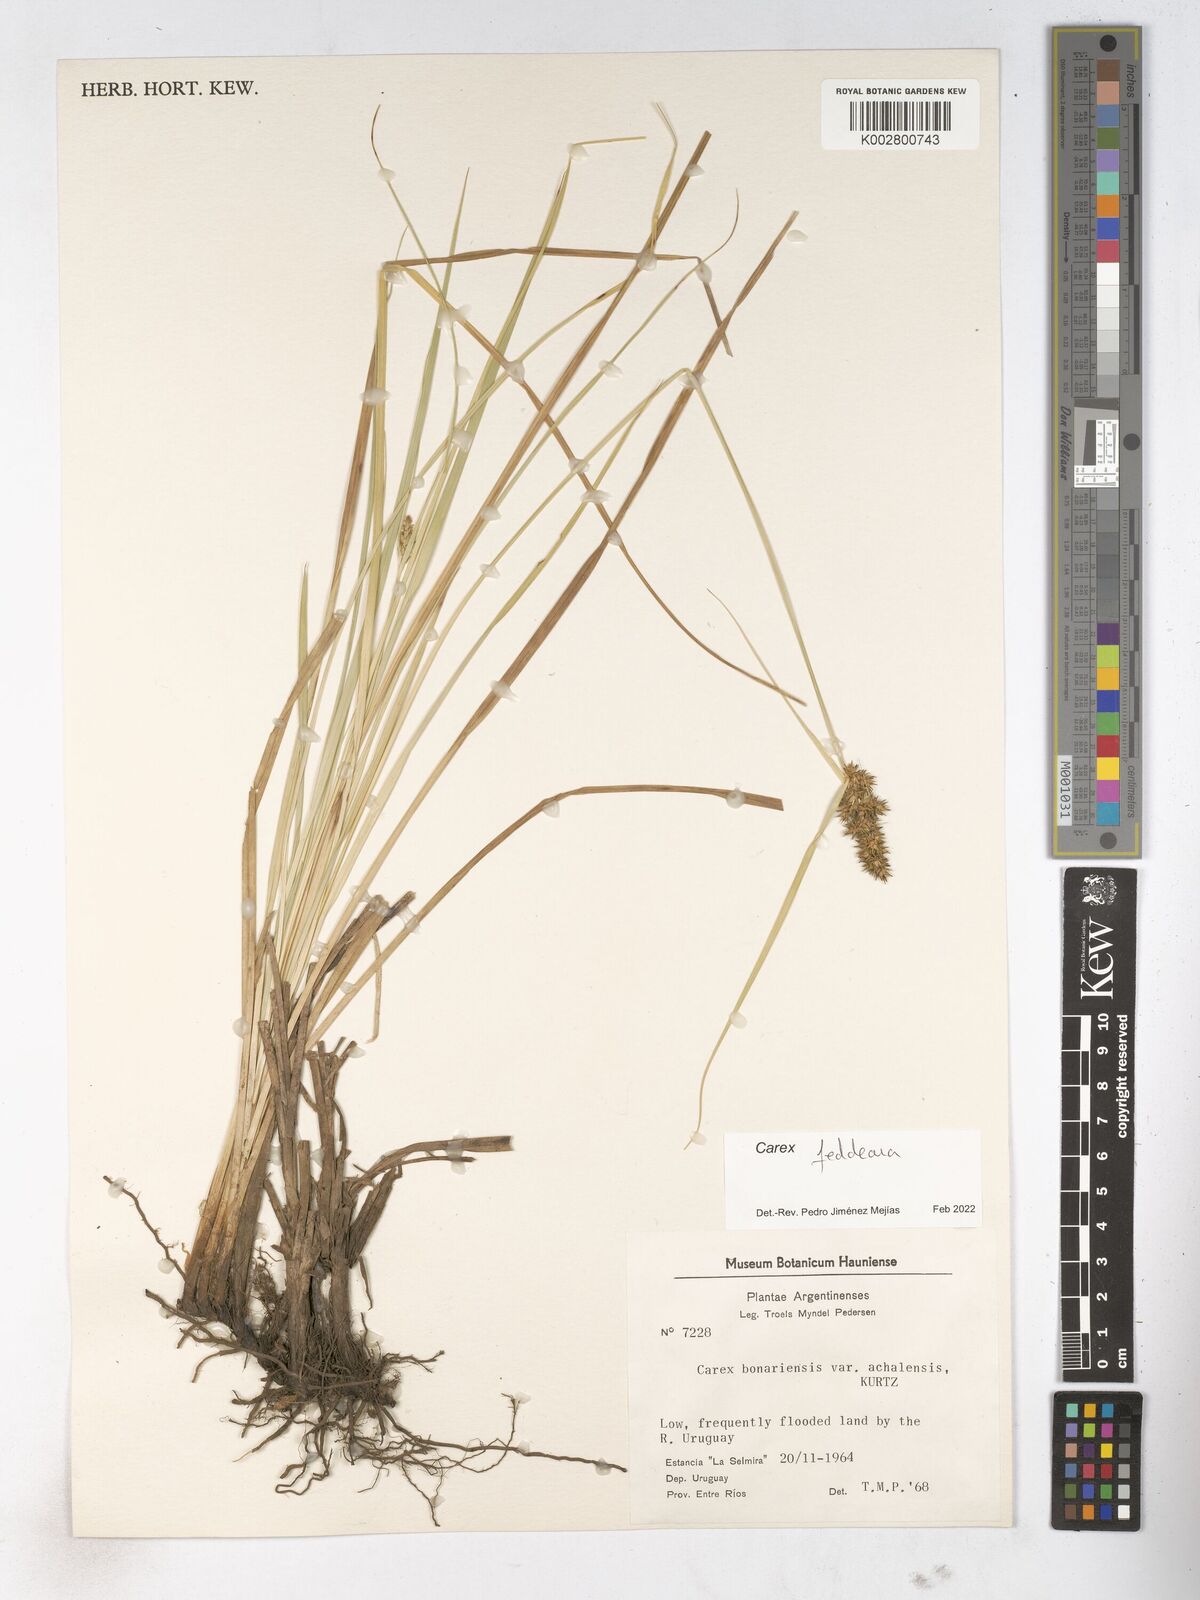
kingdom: Plantae
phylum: Tracheophyta
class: Liliopsida
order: Poales
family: Cyperaceae
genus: Carex
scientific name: Carex bonariensis
